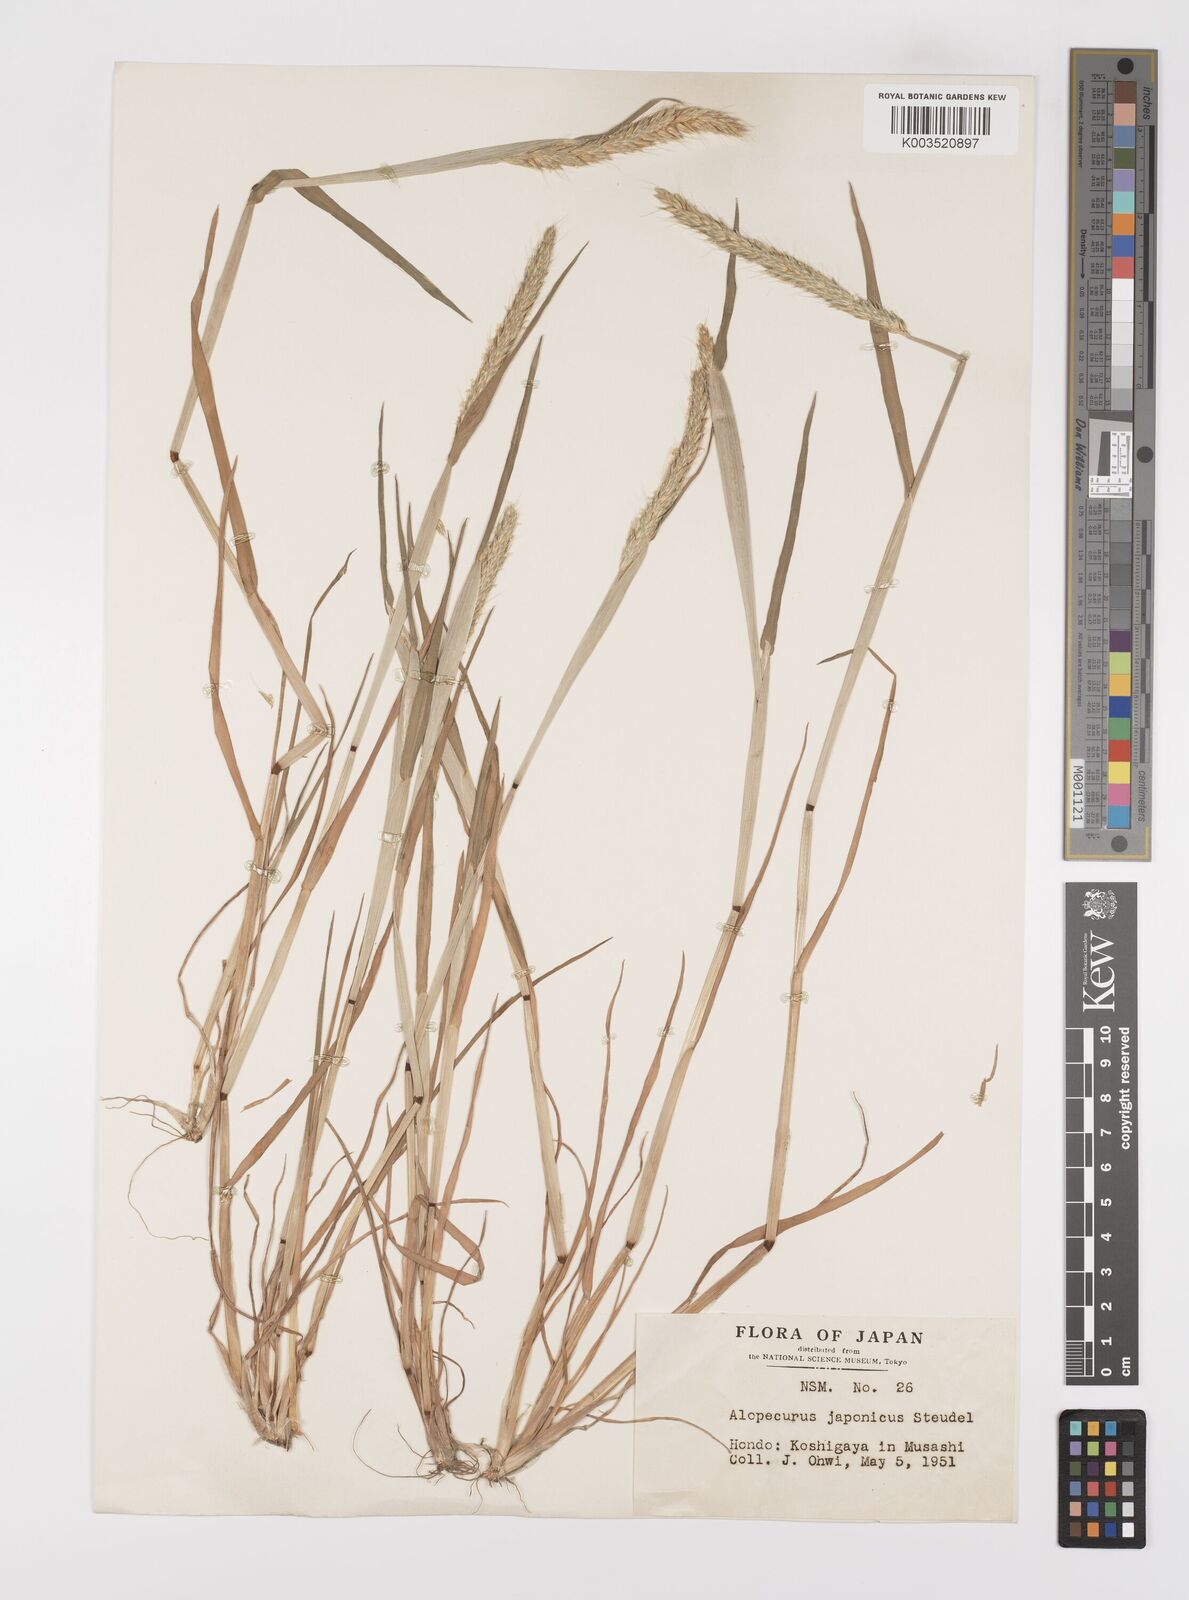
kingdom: Plantae
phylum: Tracheophyta
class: Liliopsida
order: Poales
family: Poaceae
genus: Alopecurus
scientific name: Alopecurus japonicus
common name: Japanese foxtail
